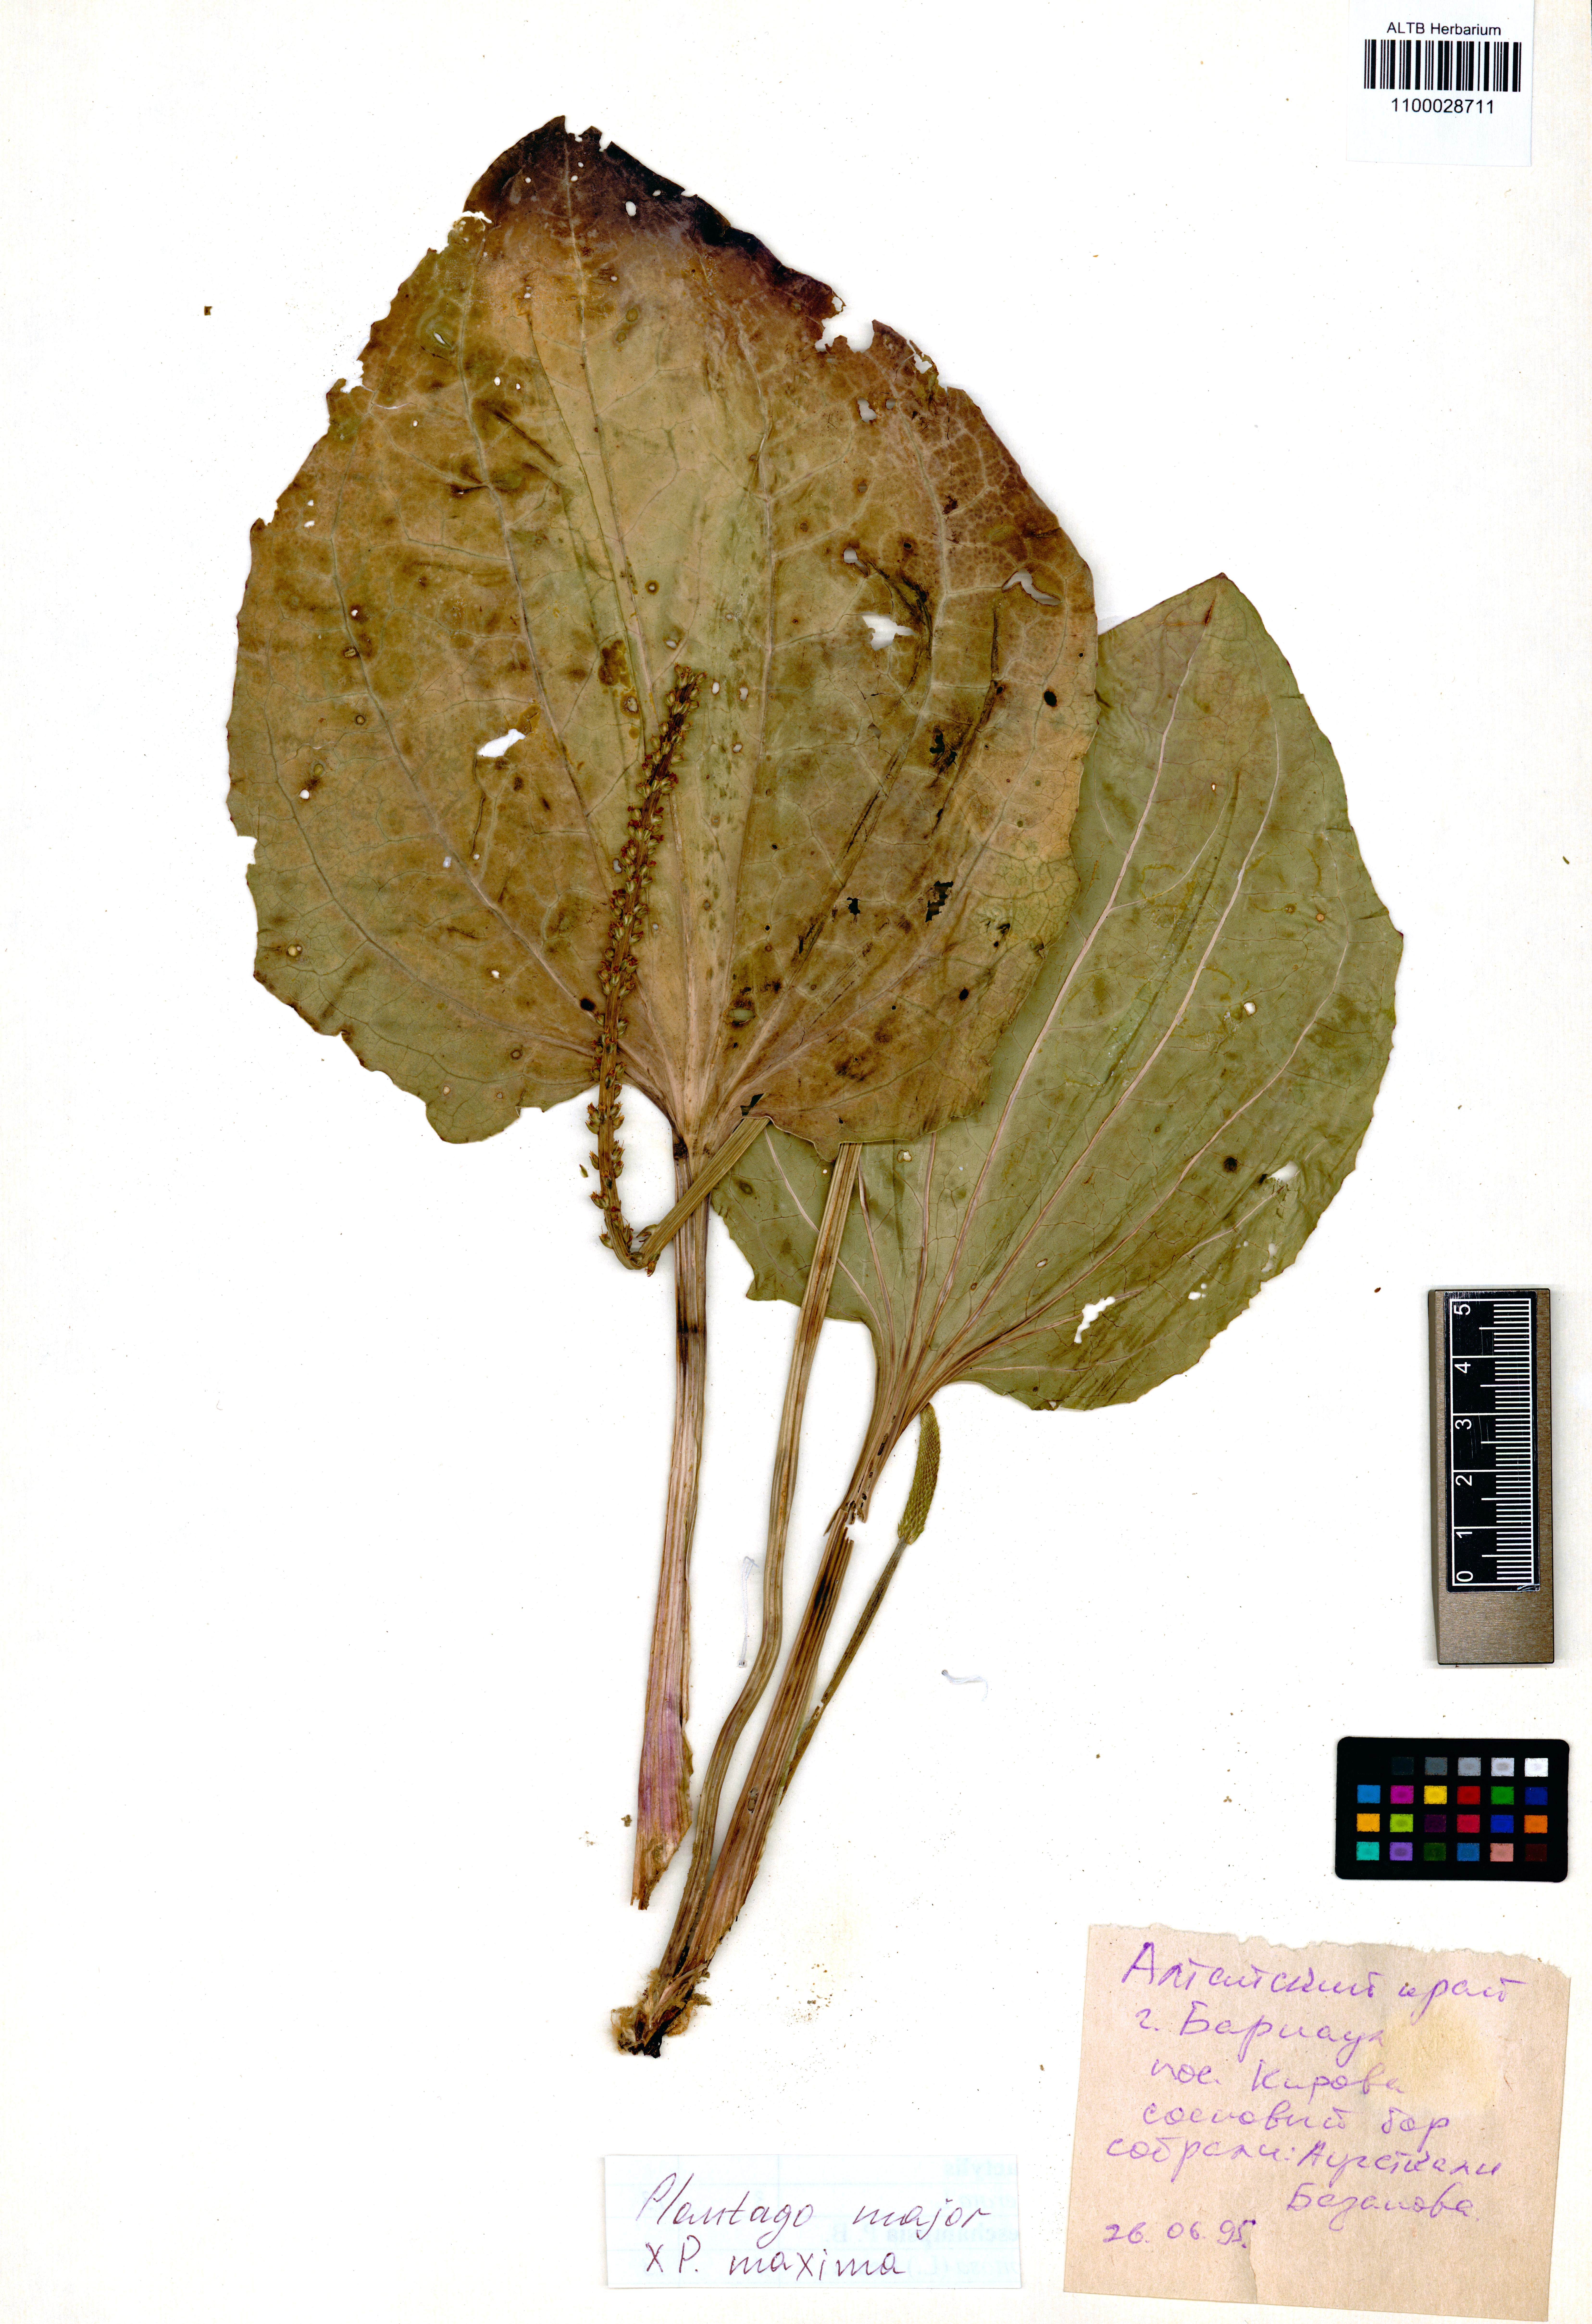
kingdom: Plantae
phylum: Tracheophyta
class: Magnoliopsida
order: Lamiales
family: Plantaginaceae
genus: Plantago
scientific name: Plantago major
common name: Common plantain
